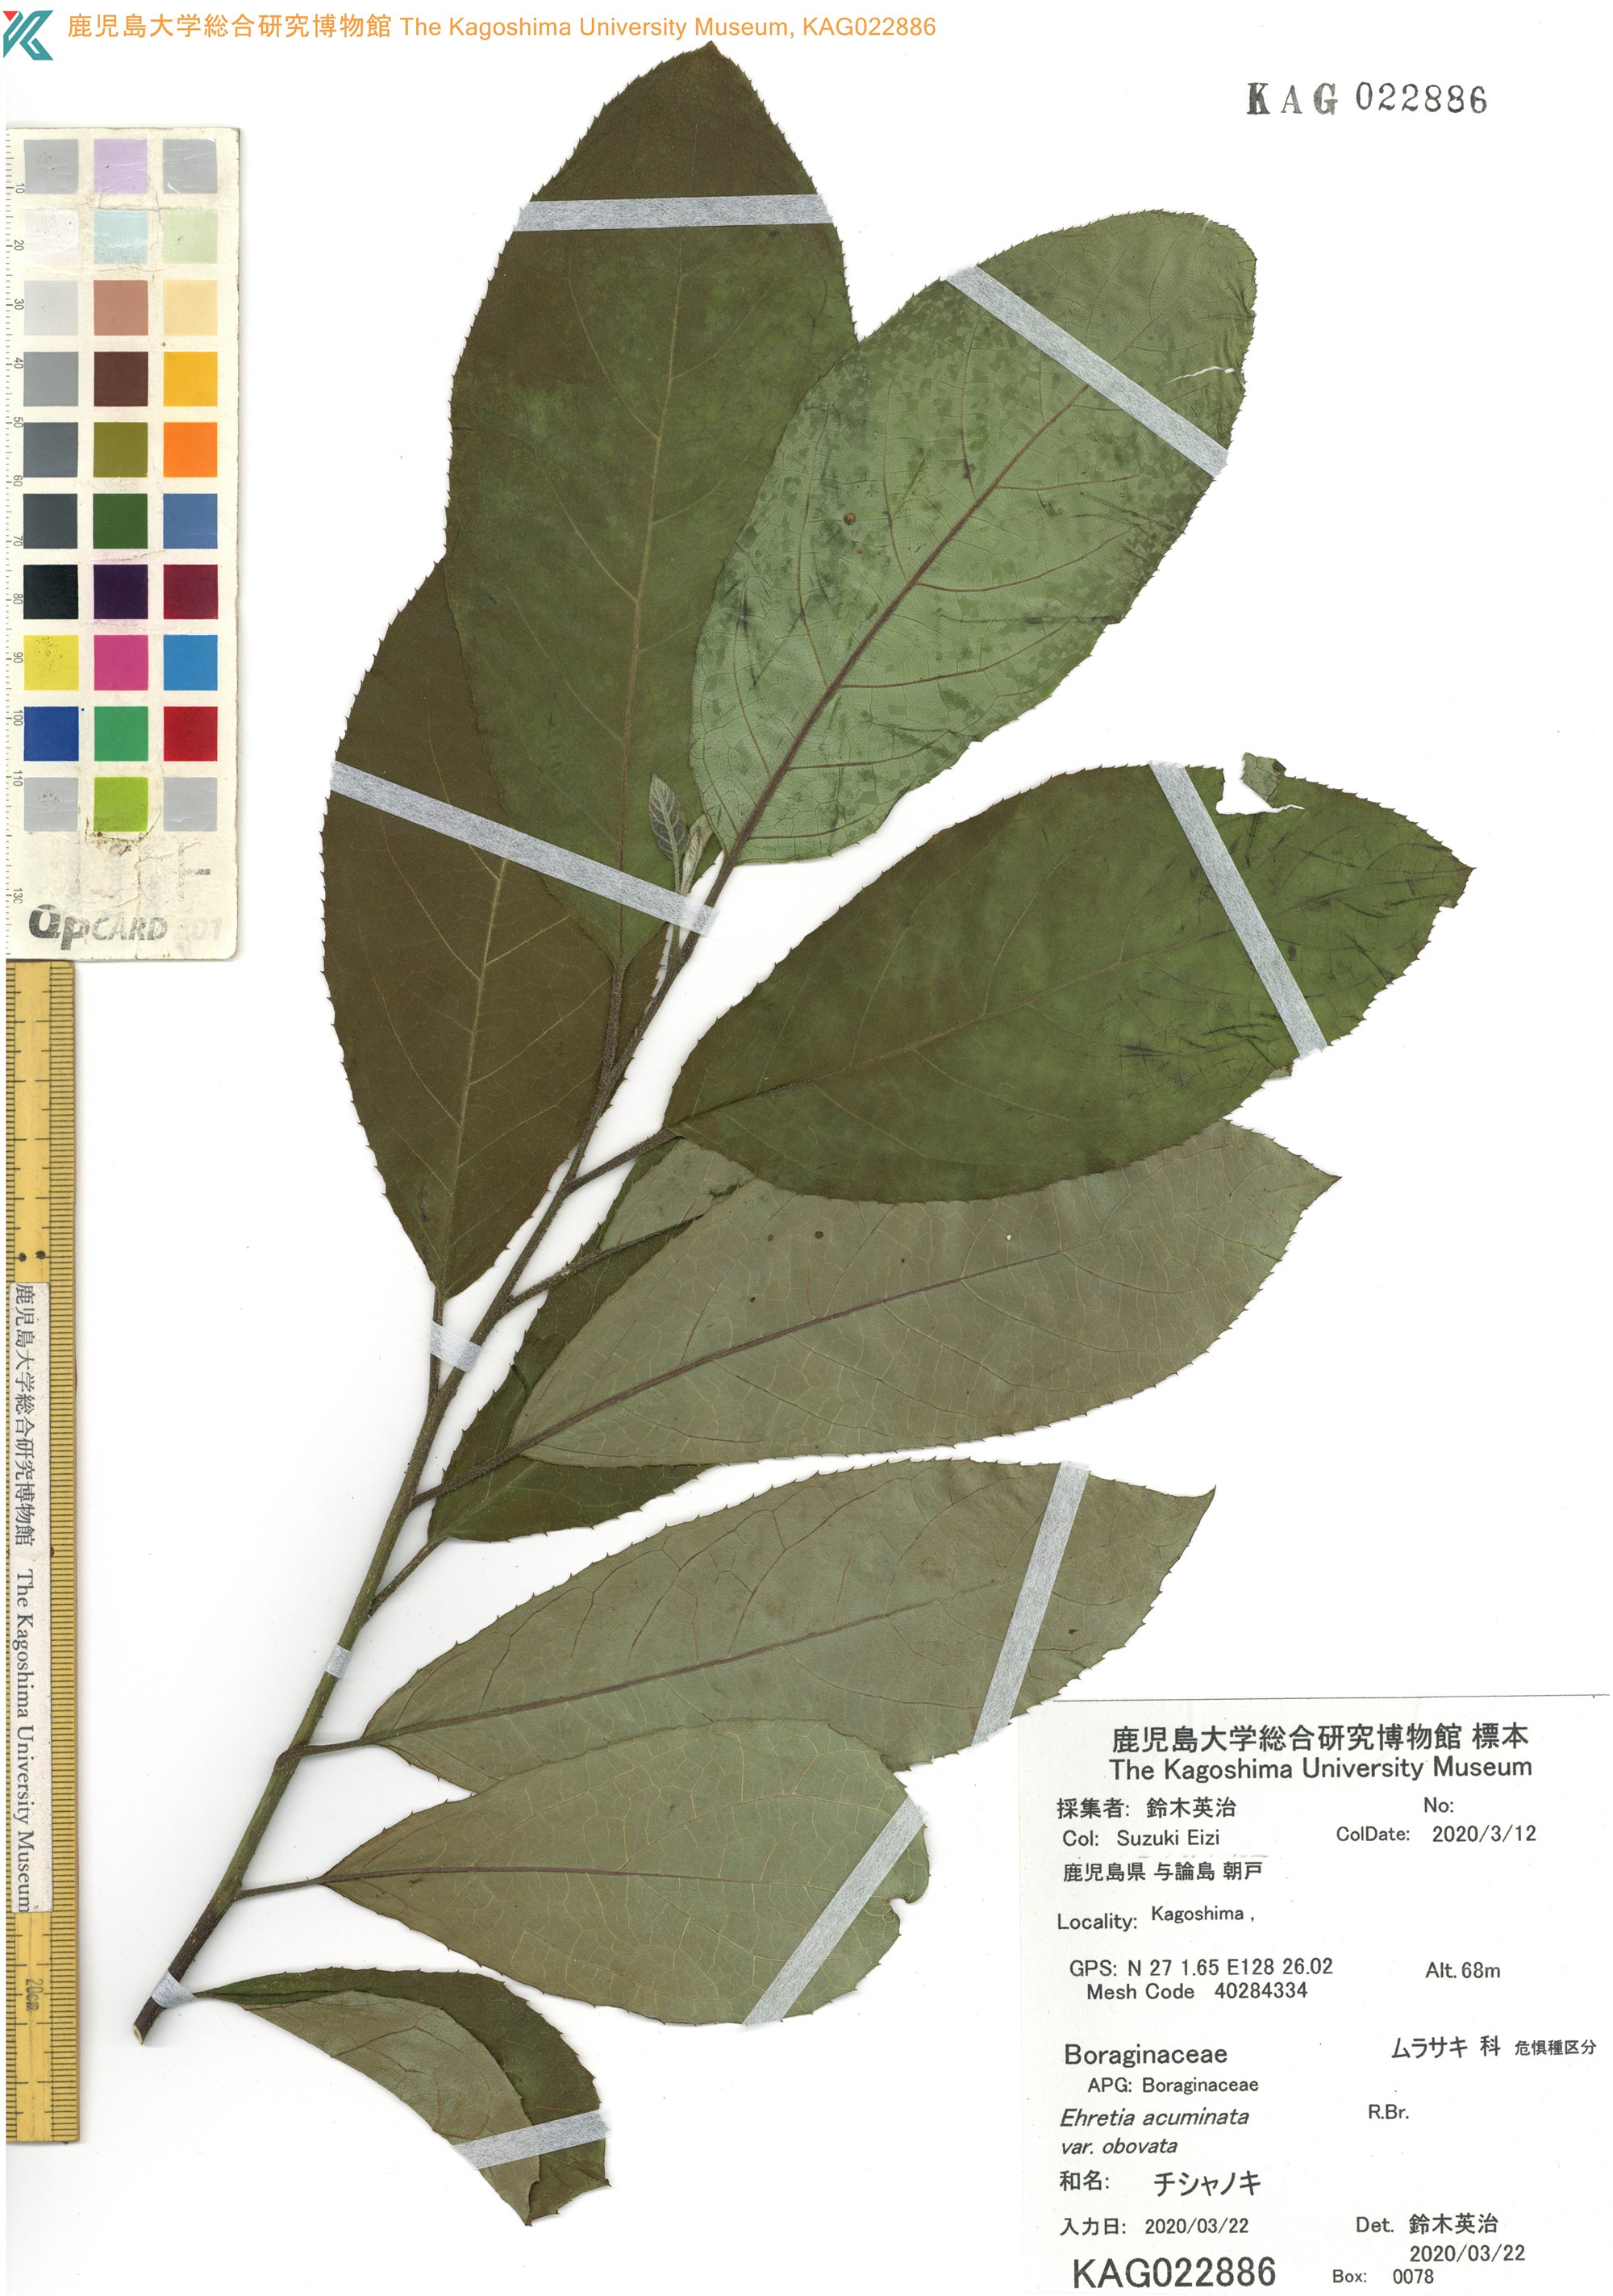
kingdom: Plantae
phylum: Tracheophyta
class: Magnoliopsida
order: Boraginales
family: Ehretiaceae
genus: Ehretia
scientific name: Ehretia acuminata
